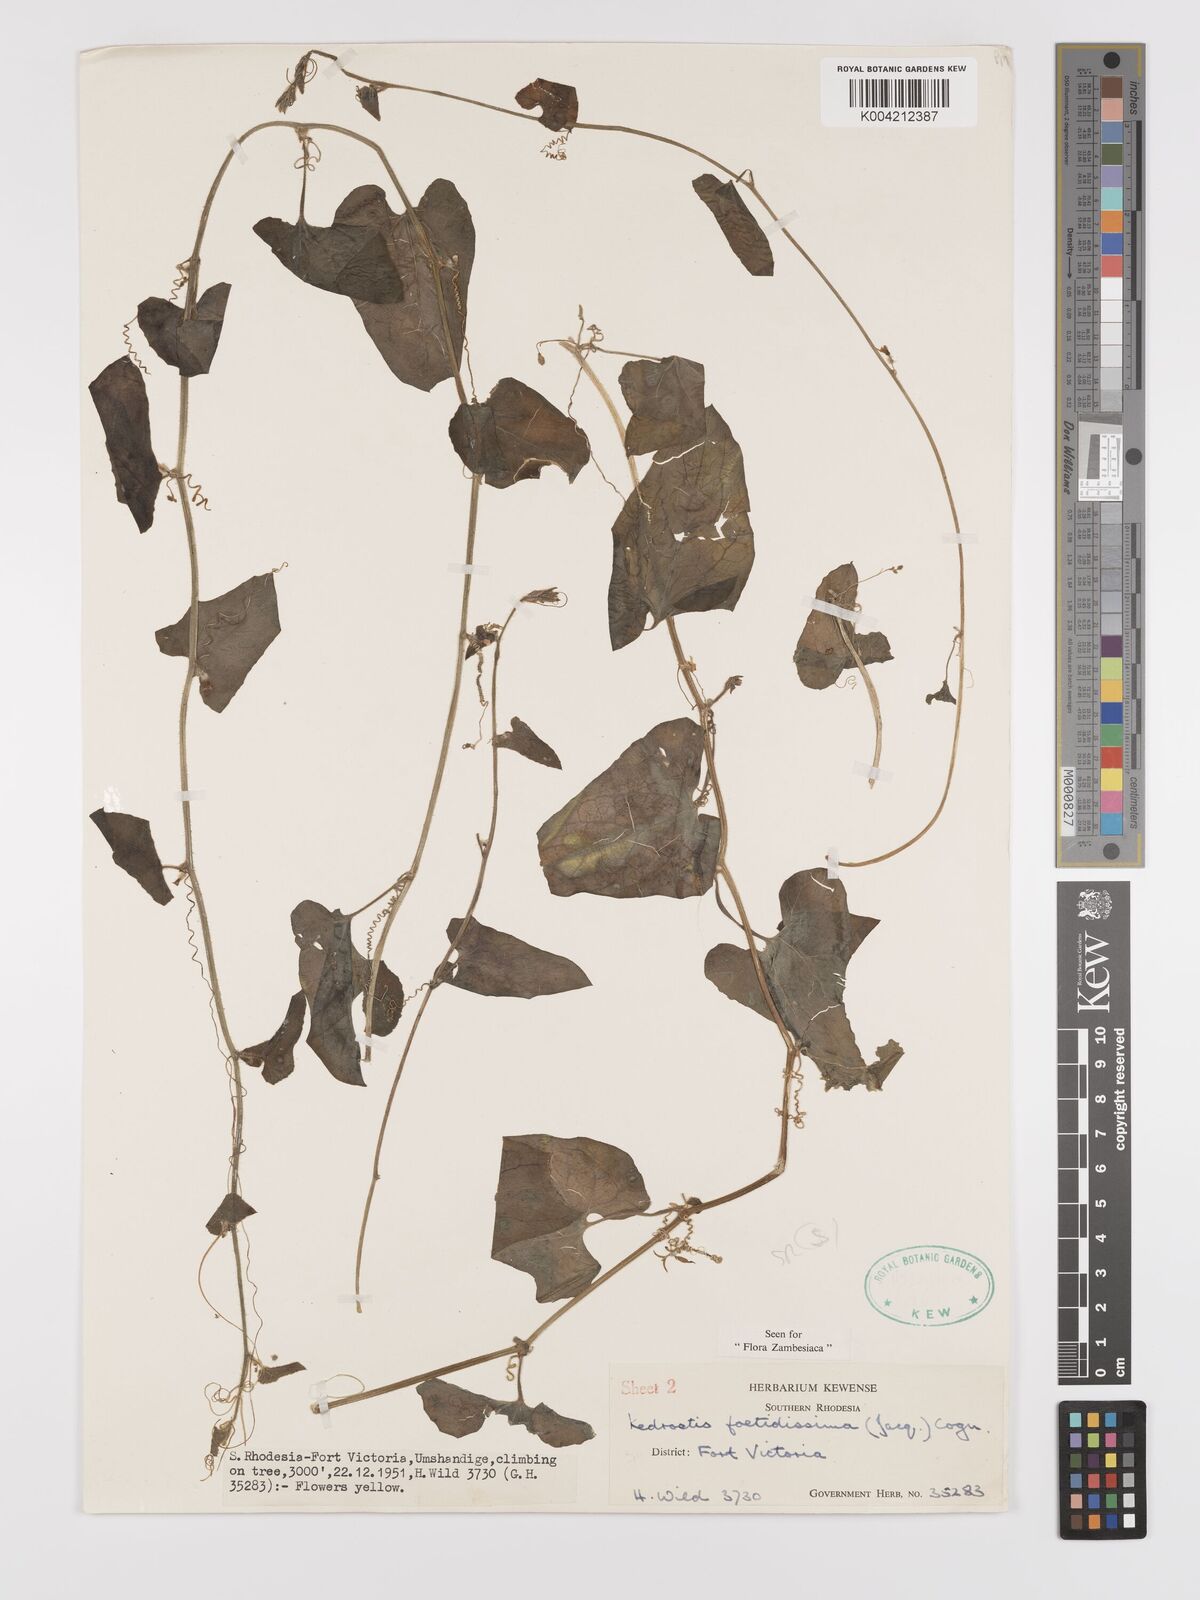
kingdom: Plantae
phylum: Tracheophyta
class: Magnoliopsida
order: Cucurbitales
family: Cucurbitaceae
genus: Kedrostis
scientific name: Kedrostis foetidissima
